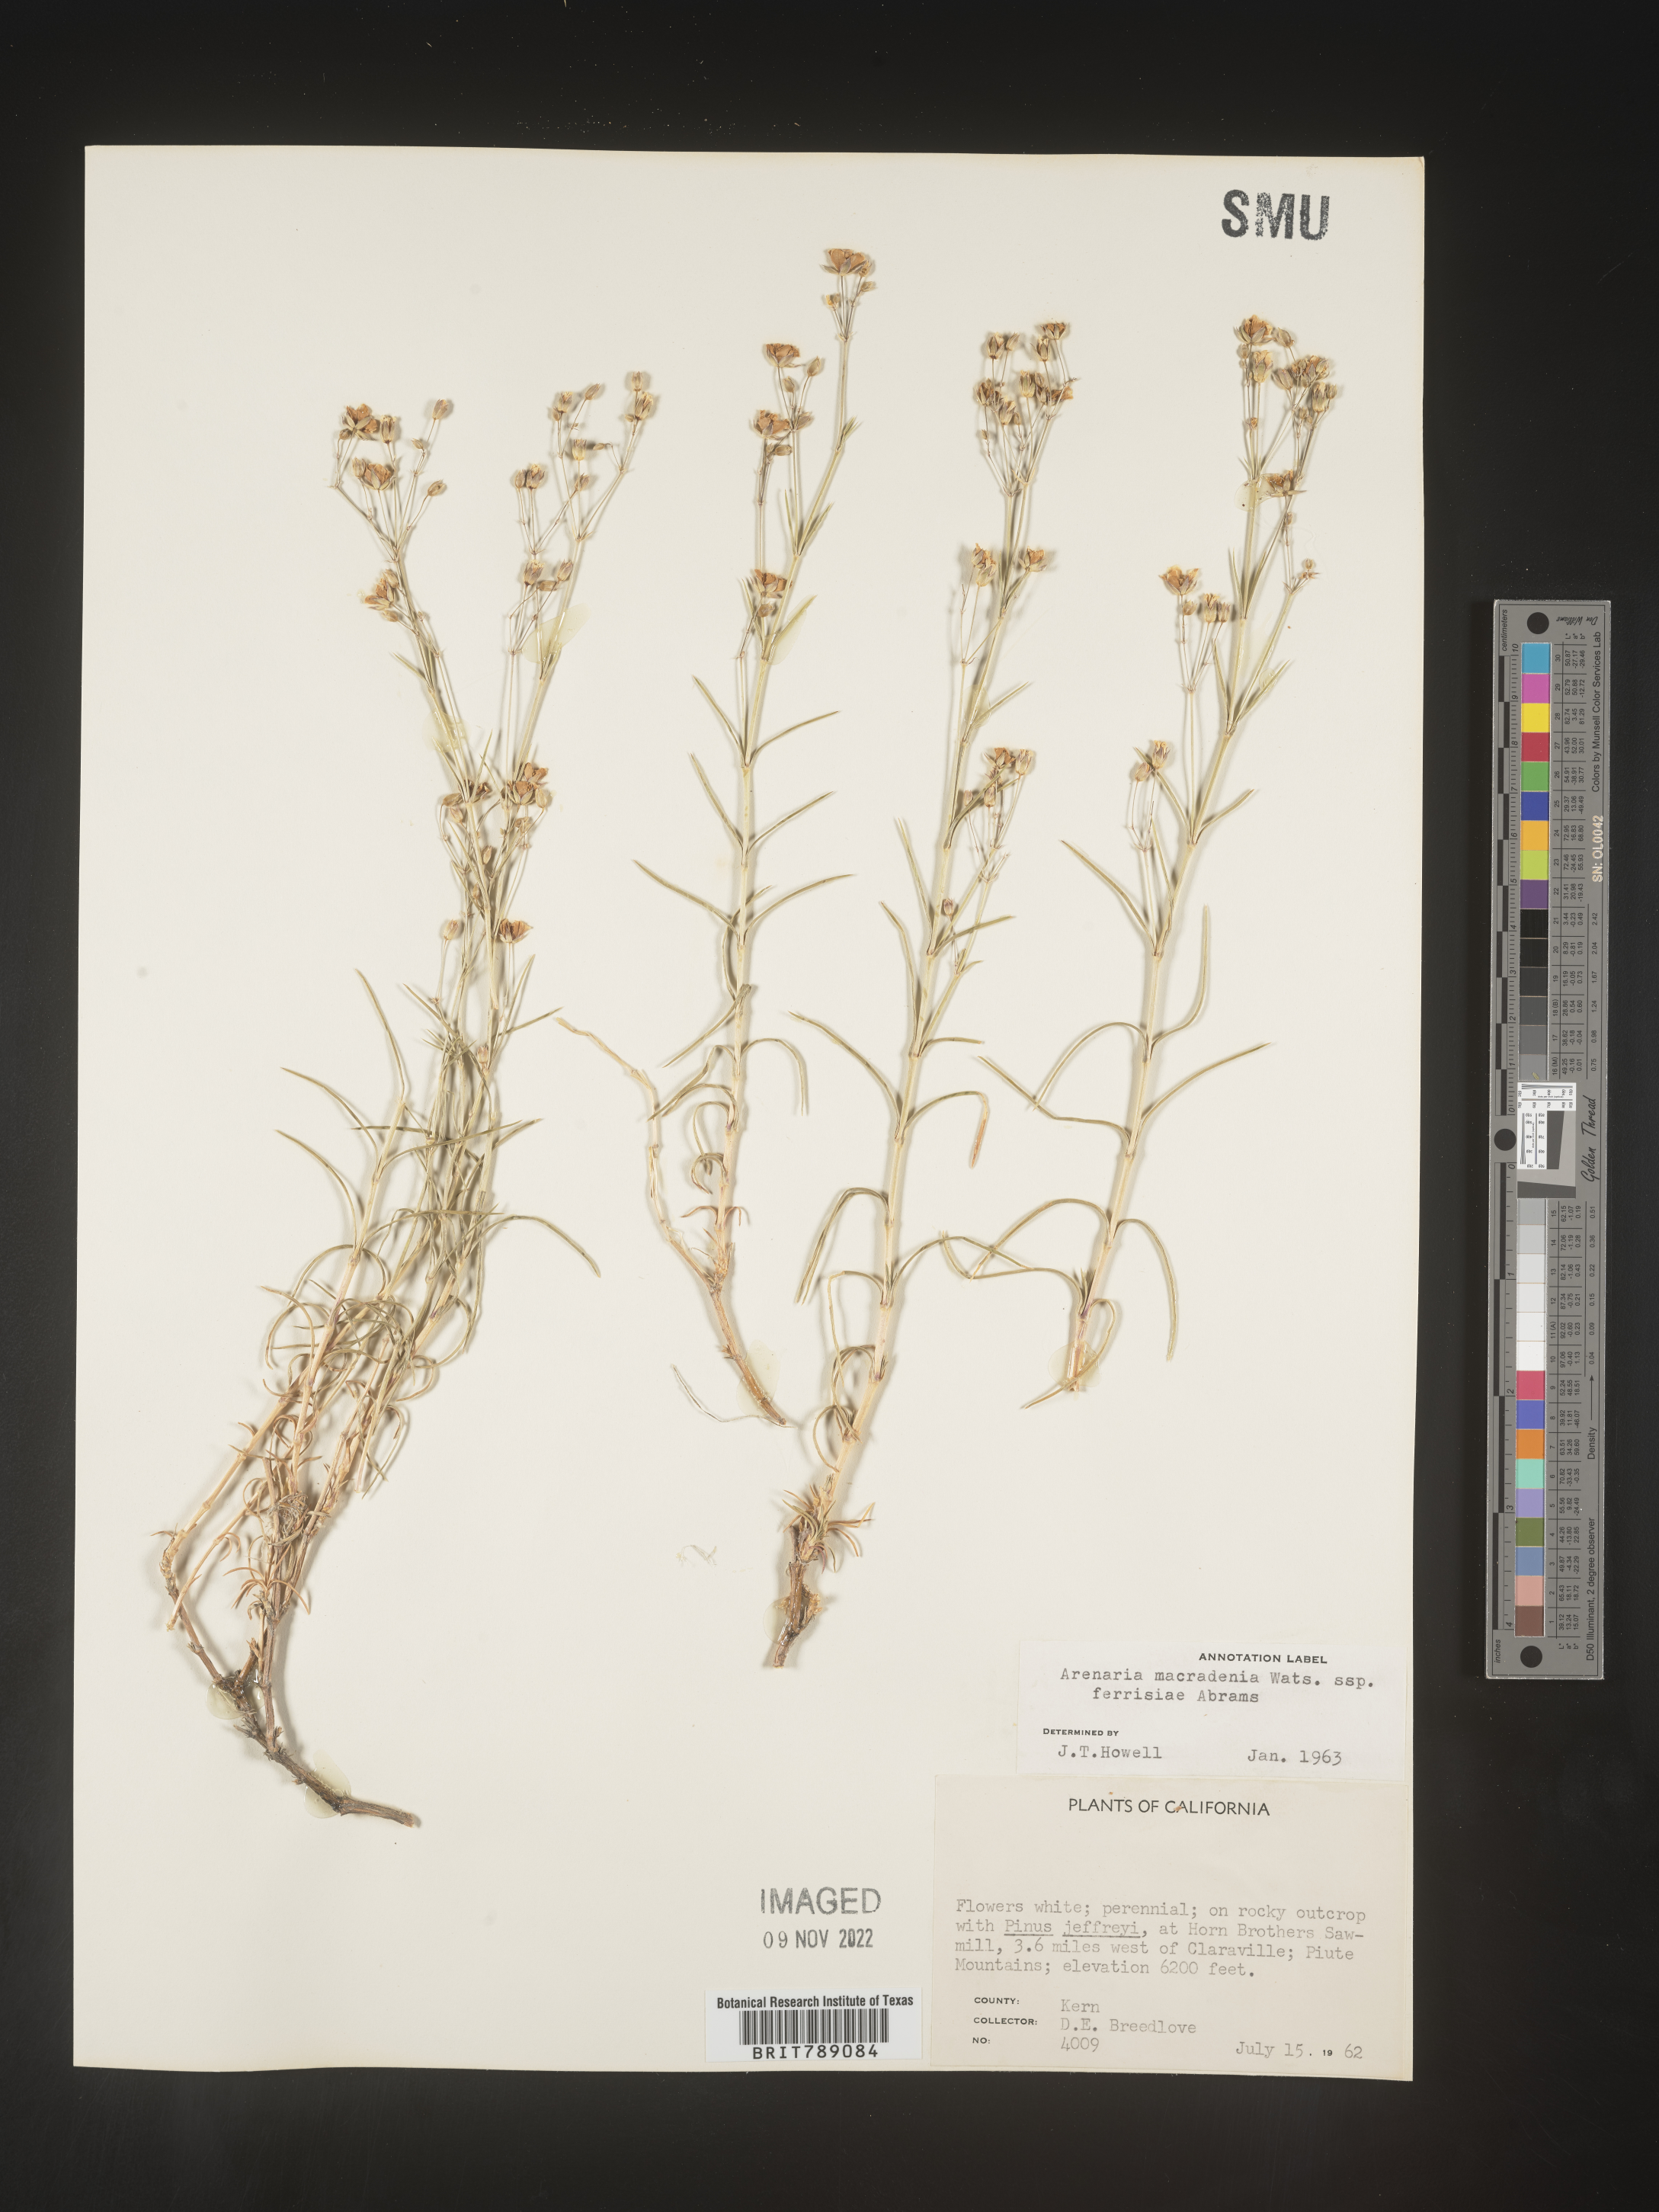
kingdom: Plantae
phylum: Tracheophyta
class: Magnoliopsida
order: Caryophyllales
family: Caryophyllaceae
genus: Arenaria
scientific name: Arenaria
